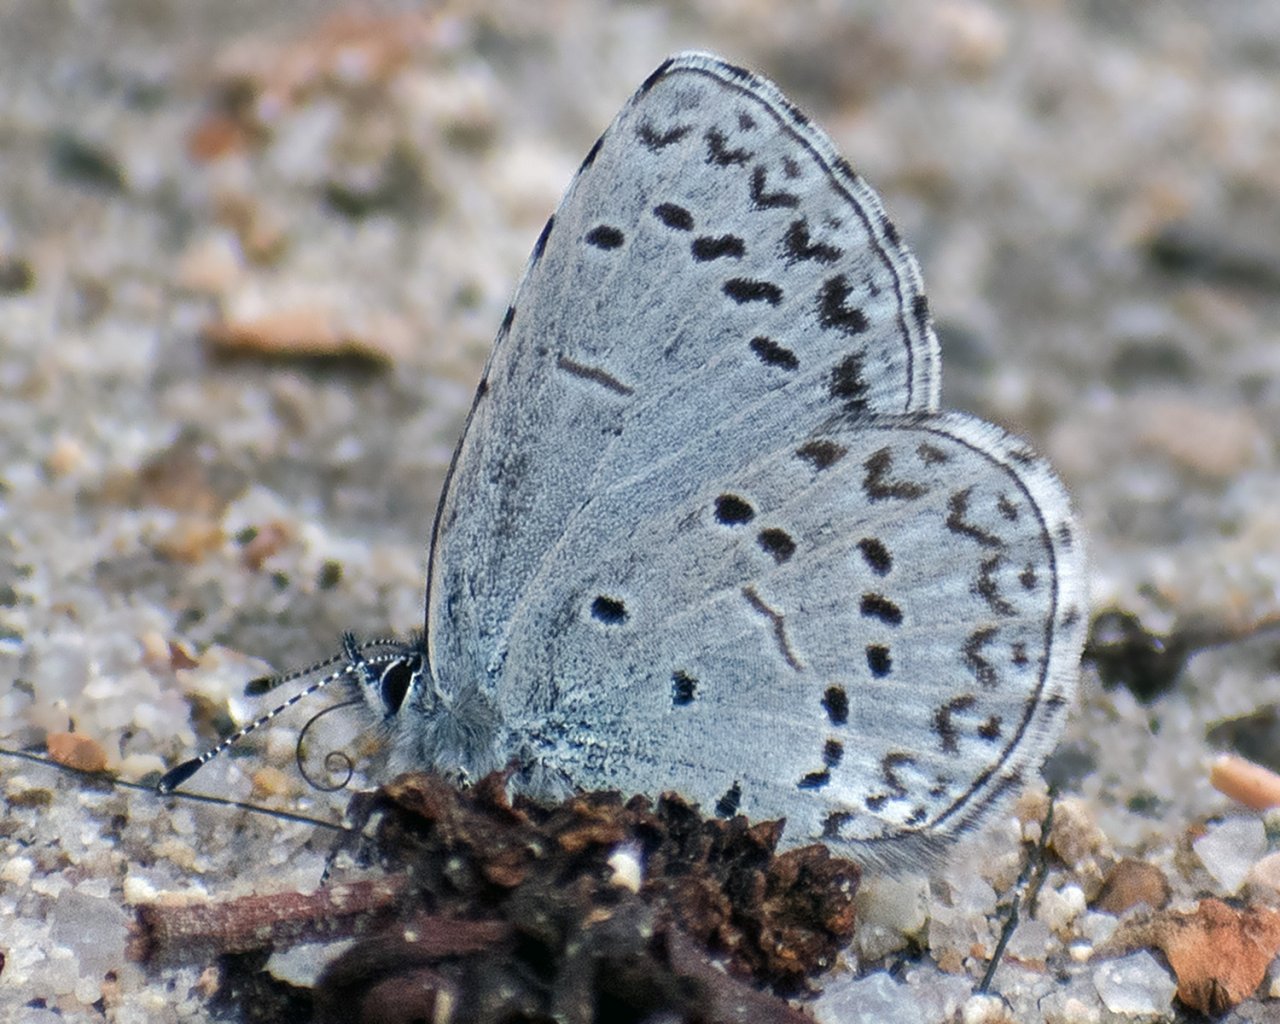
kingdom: Animalia
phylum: Arthropoda
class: Insecta
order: Lepidoptera
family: Lycaenidae
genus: Celastrina
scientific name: Celastrina ladon
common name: Echo Azure
